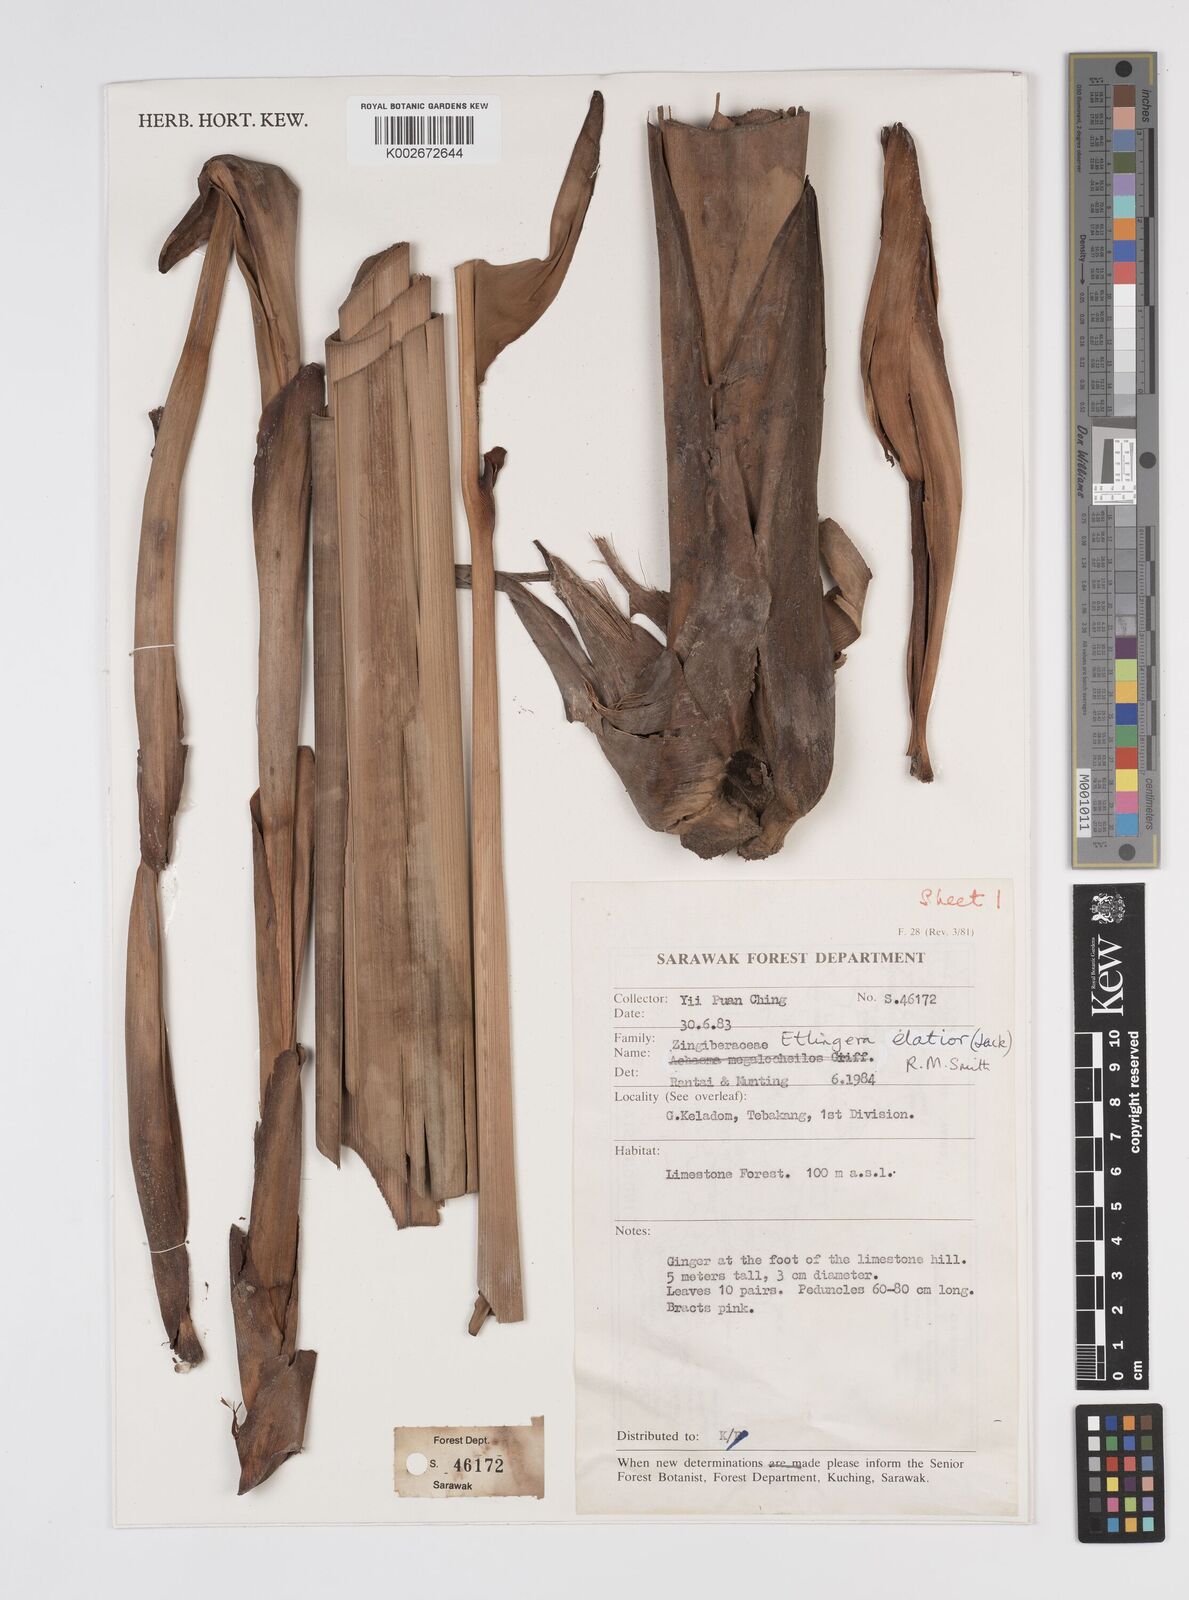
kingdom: Plantae
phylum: Tracheophyta
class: Liliopsida
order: Zingiberales
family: Zingiberaceae
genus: Etlingera
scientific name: Etlingera elatior
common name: Philippine waxflower
